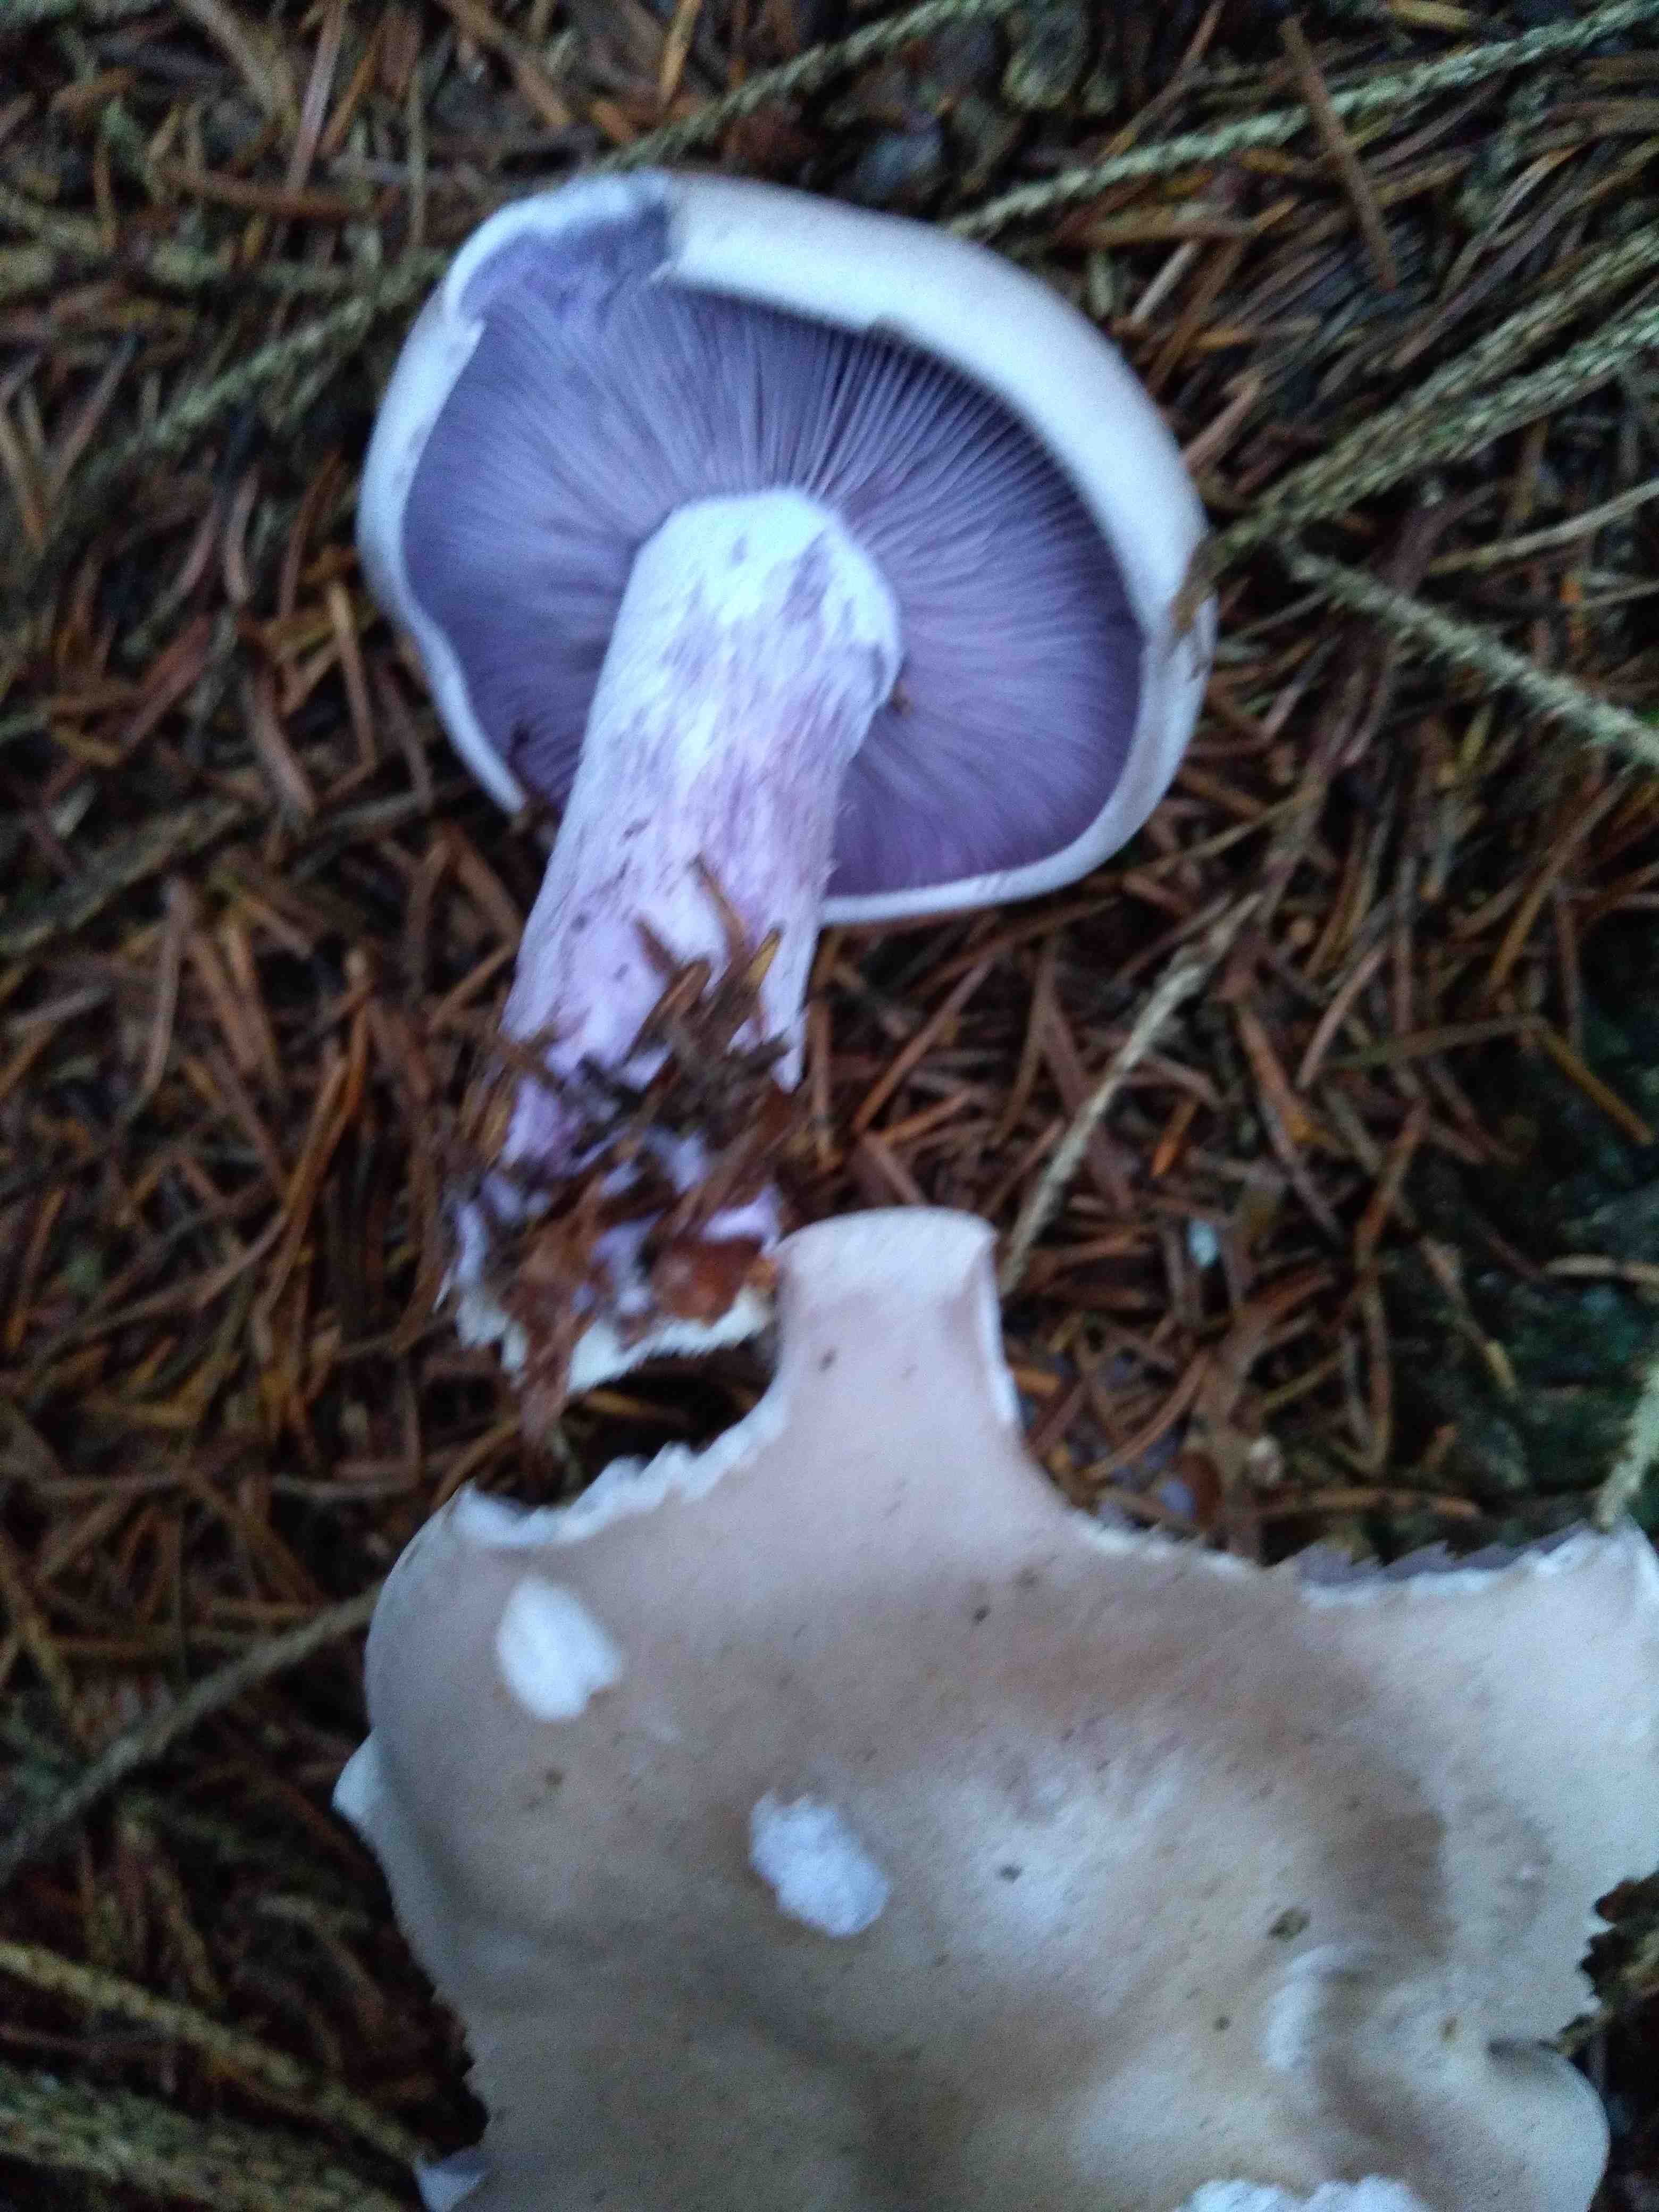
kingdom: Fungi
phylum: Basidiomycota
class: Agaricomycetes
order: Agaricales
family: Tricholomataceae
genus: Lepista
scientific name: Lepista nuda
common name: violet hekseringshat
